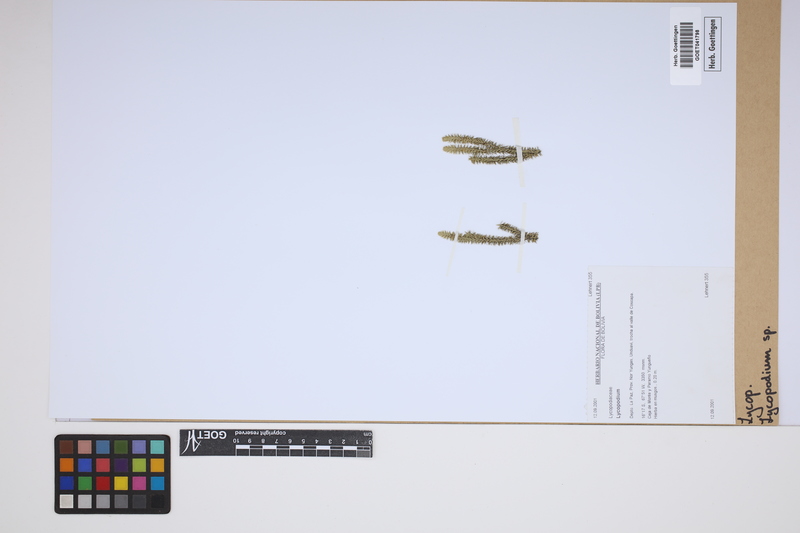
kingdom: Plantae
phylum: Tracheophyta
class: Lycopodiopsida
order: Lycopodiales
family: Lycopodiaceae
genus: Lycopodium
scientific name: Lycopodium
